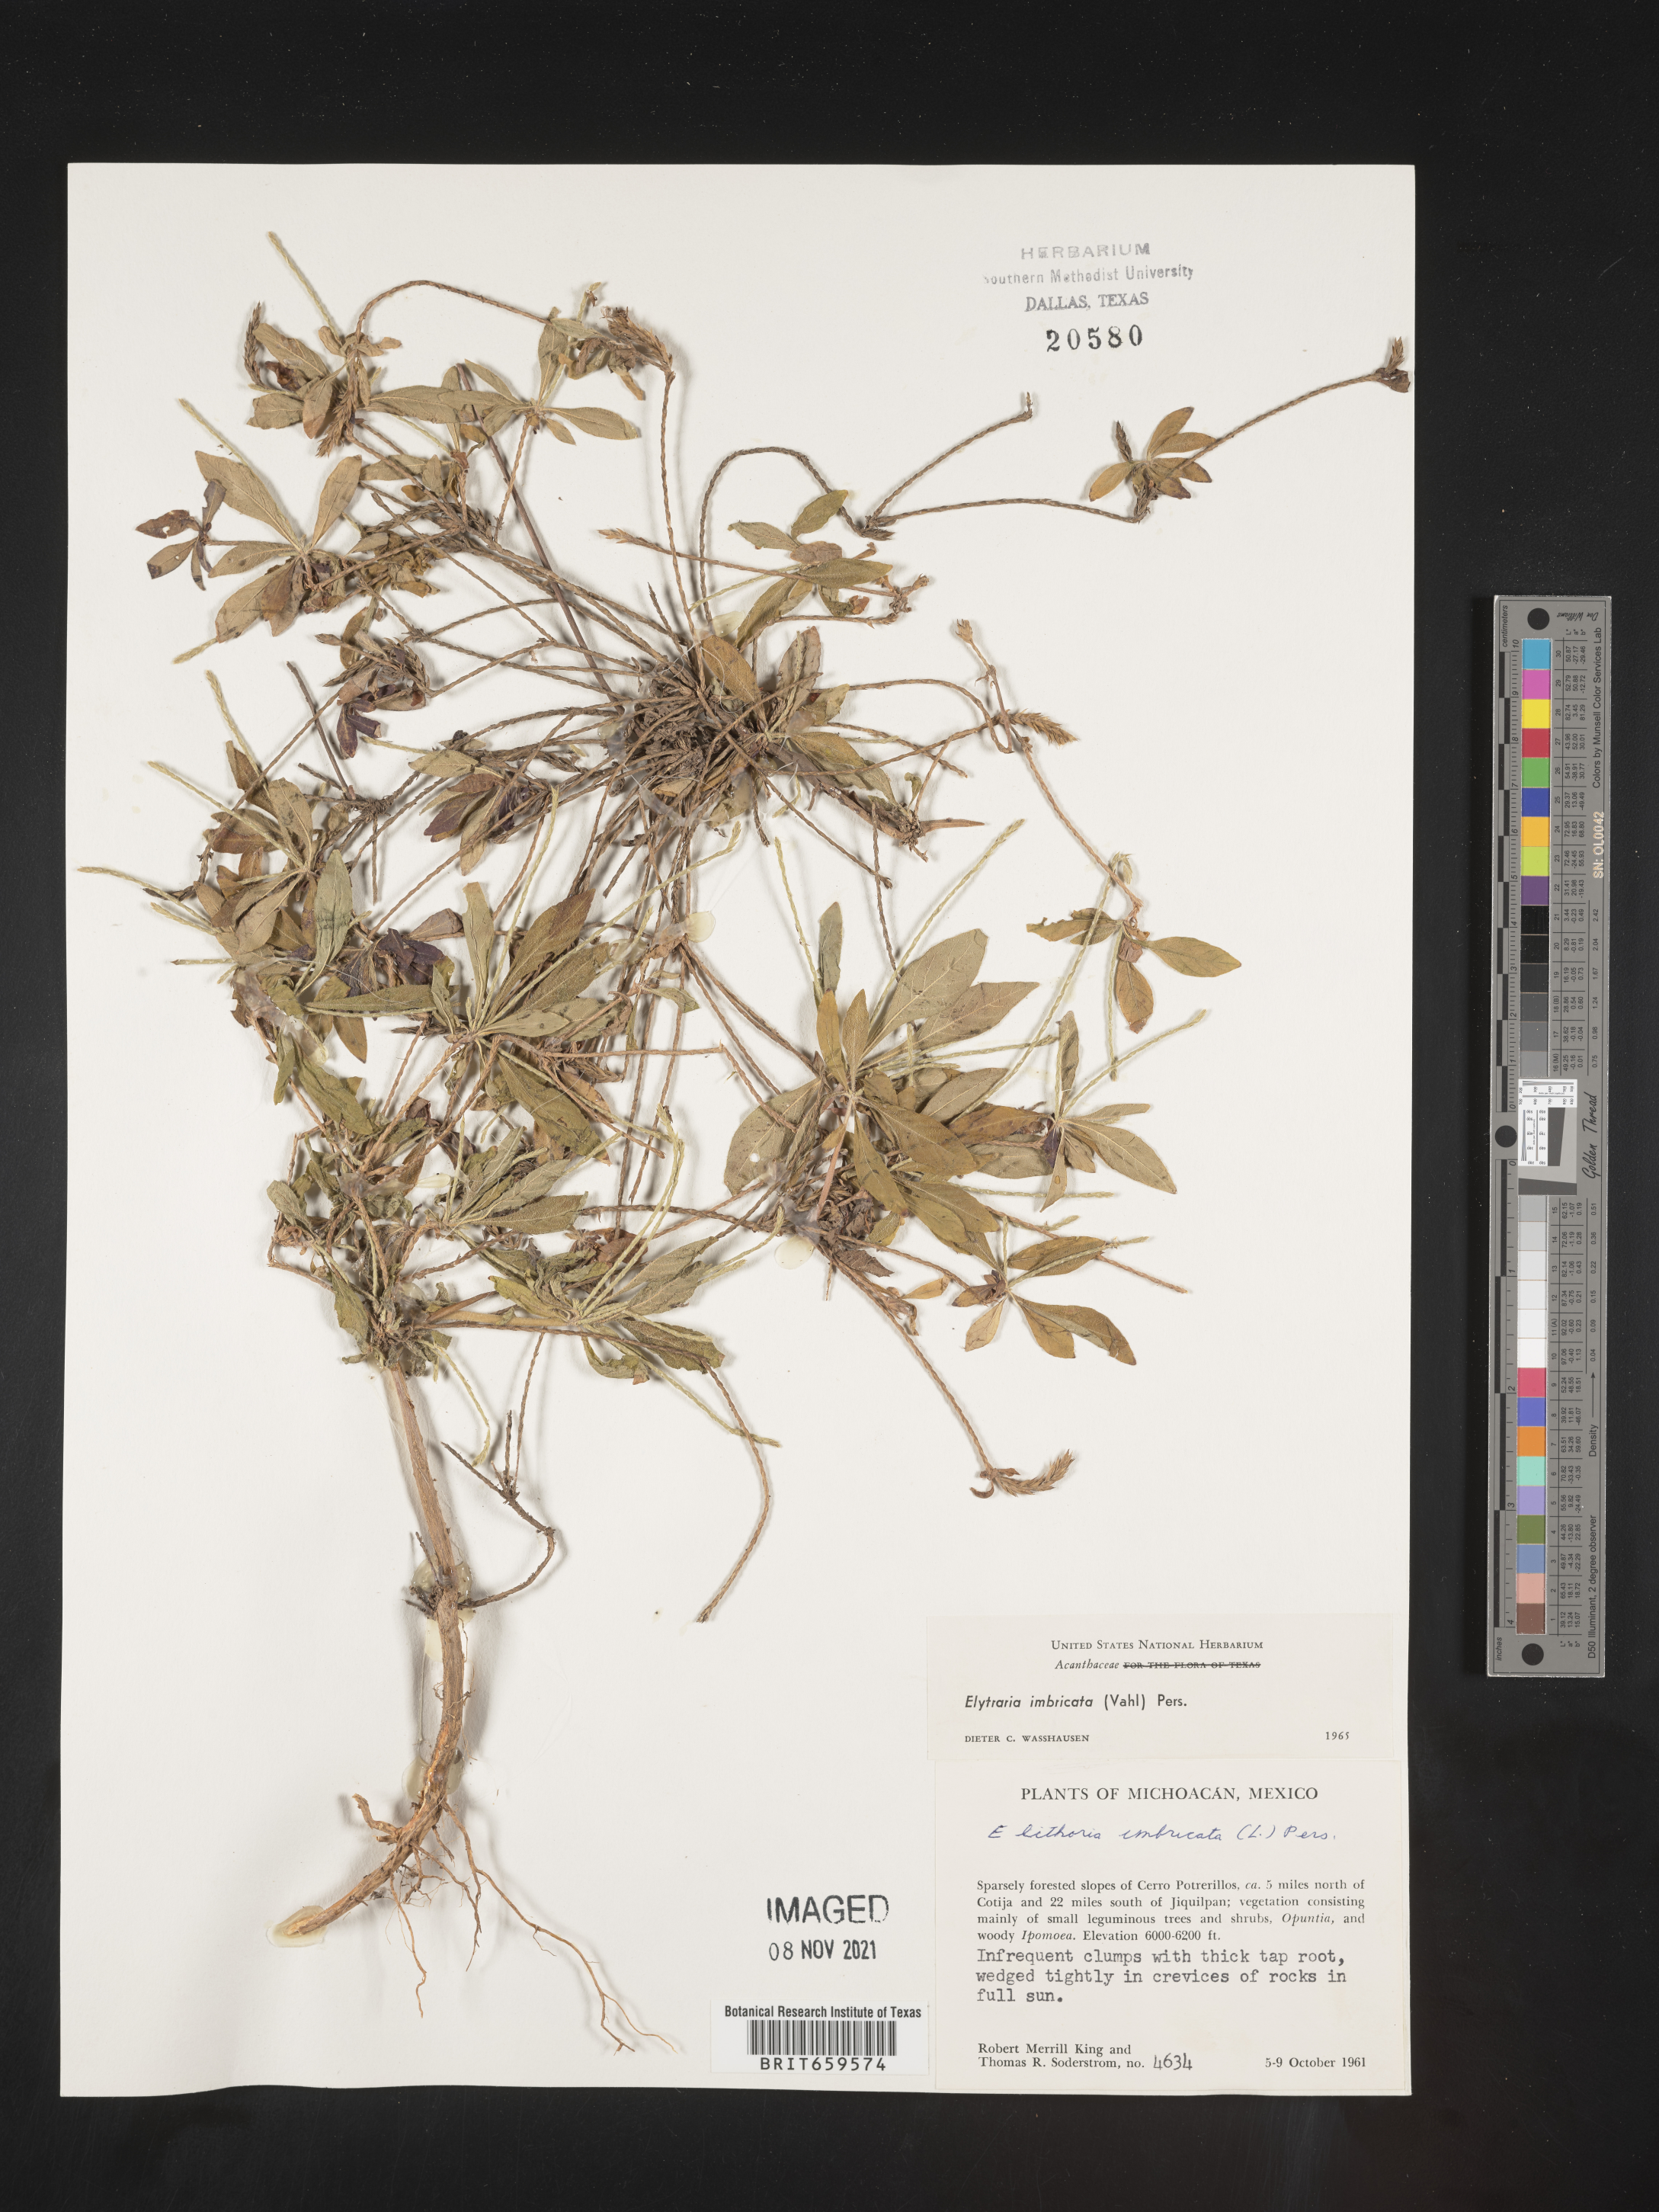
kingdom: Plantae
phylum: Tracheophyta
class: Magnoliopsida
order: Lamiales
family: Acanthaceae
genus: Elytraria
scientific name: Elytraria imbricata
